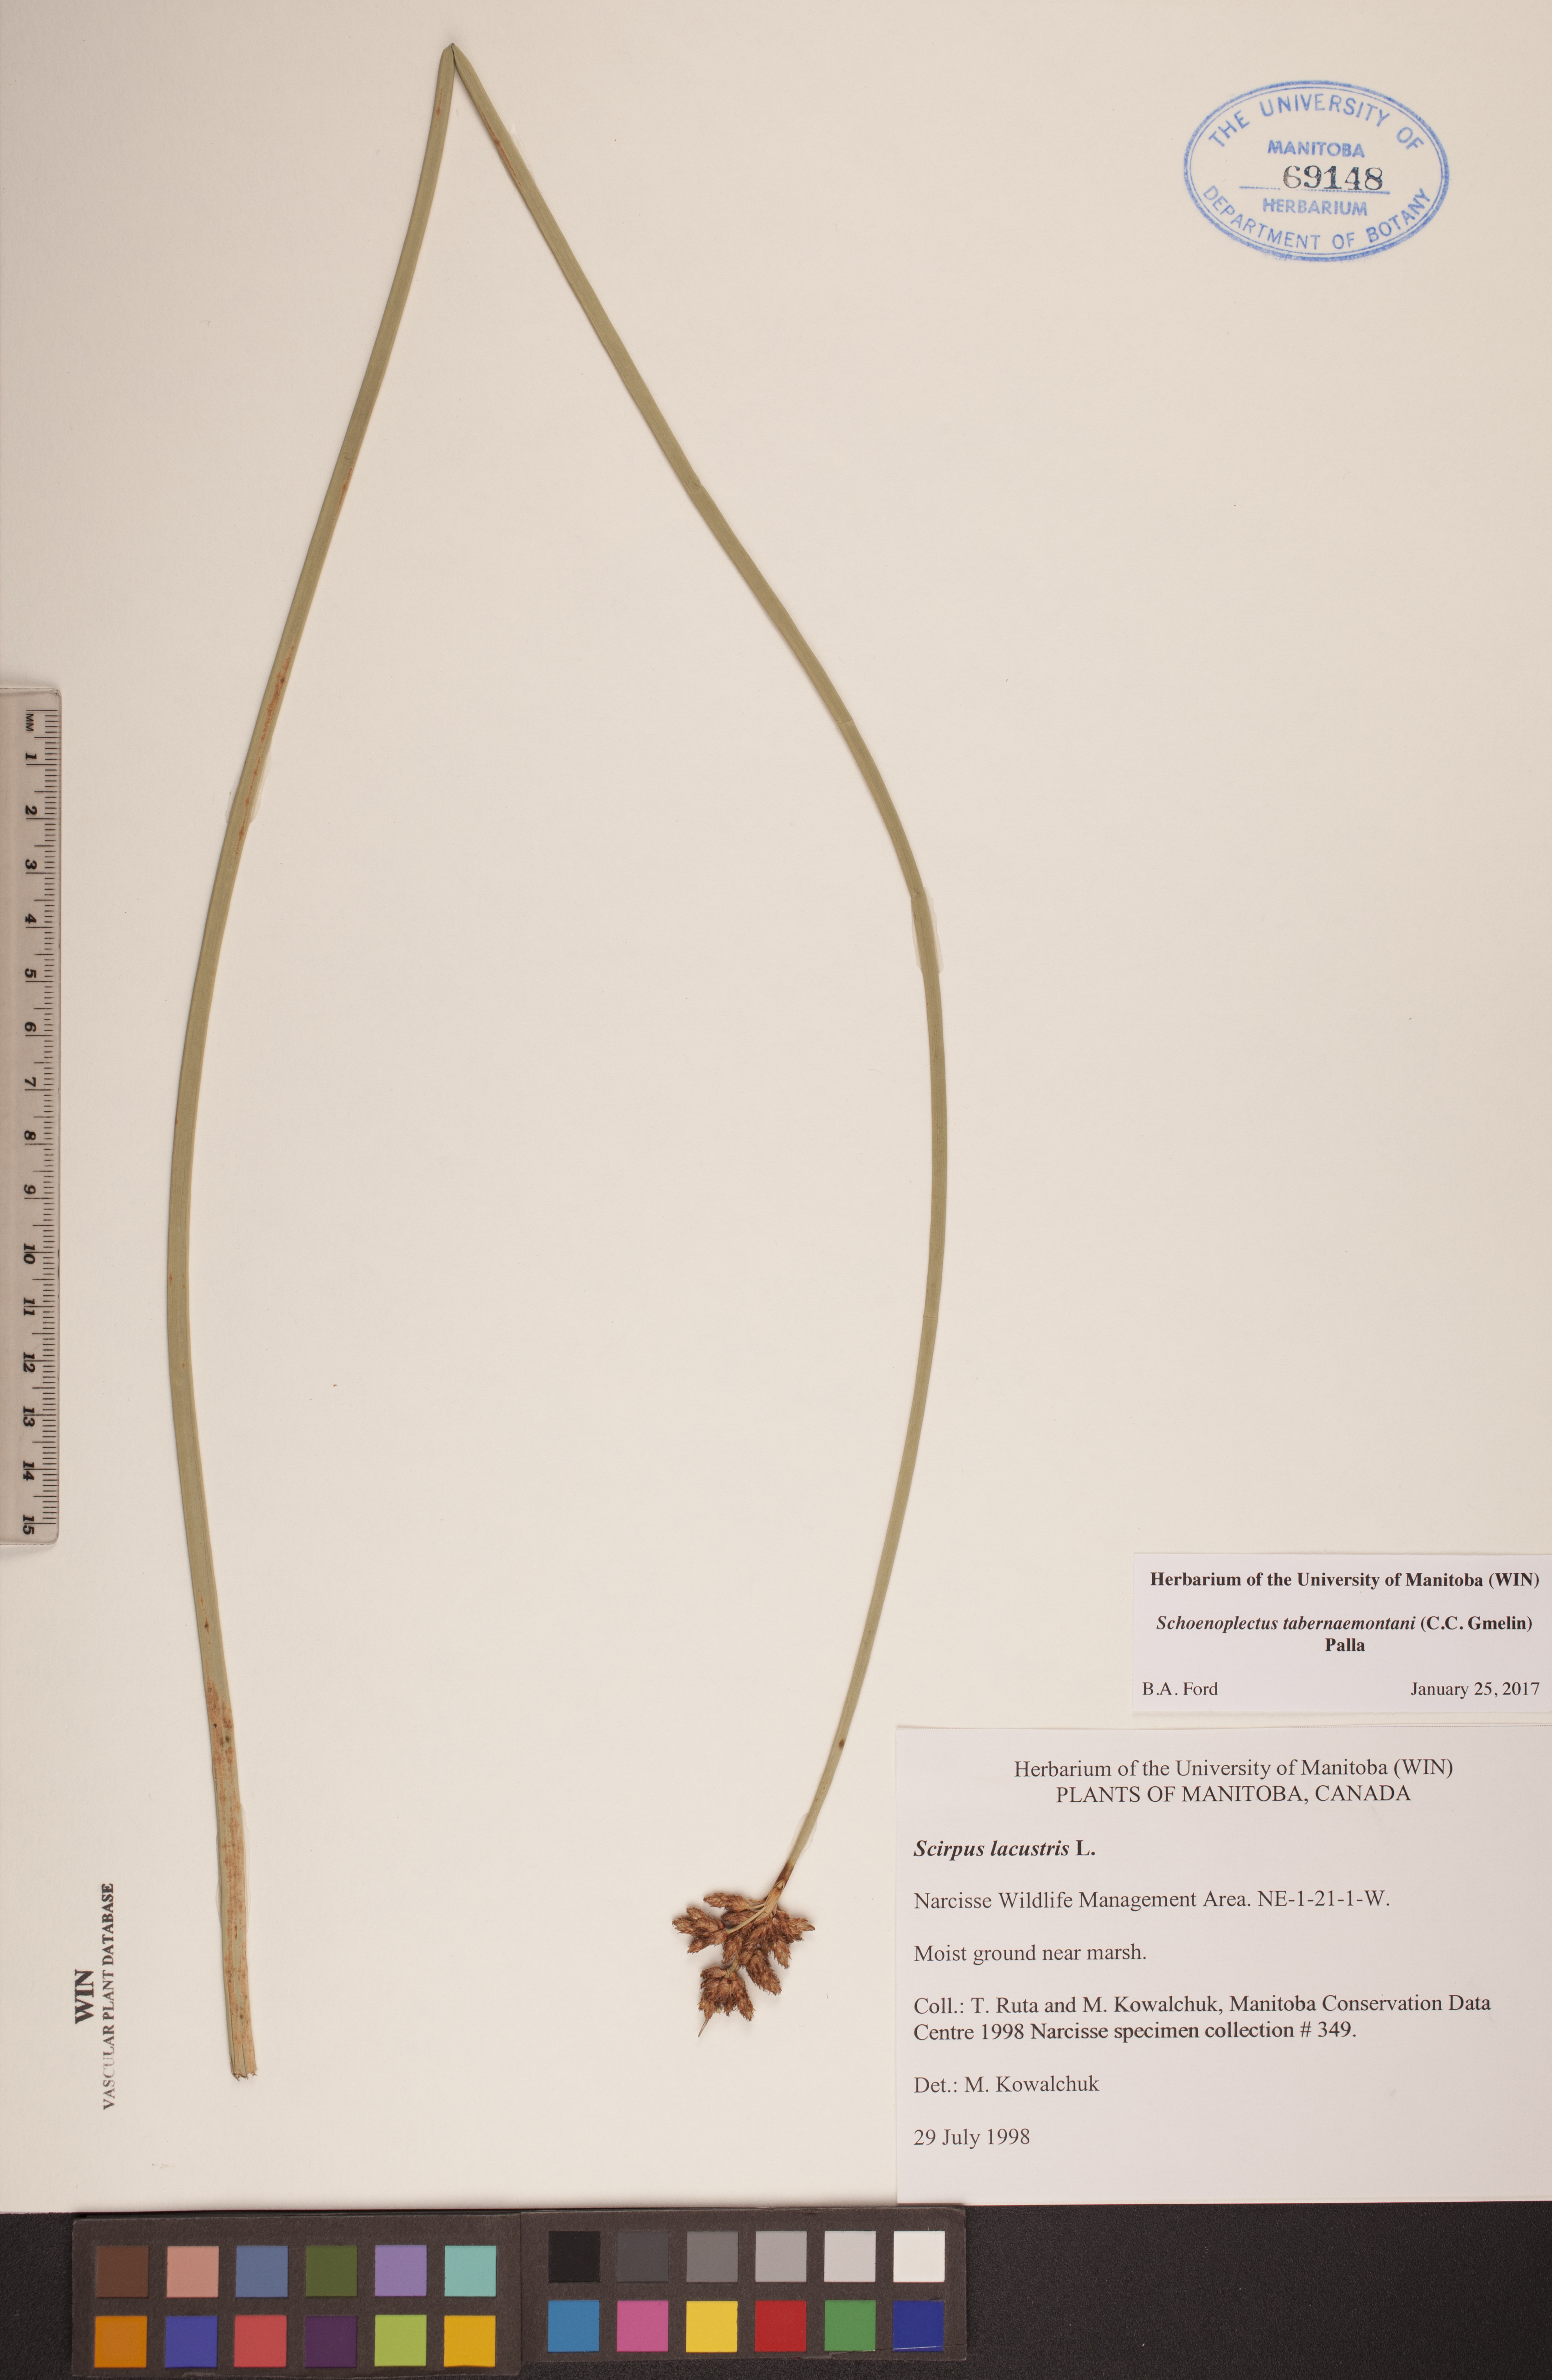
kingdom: Plantae
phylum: Tracheophyta
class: Liliopsida
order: Poales
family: Cyperaceae
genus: Schoenoplectus
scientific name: Schoenoplectus tabernaemontani
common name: Grey club-rush
